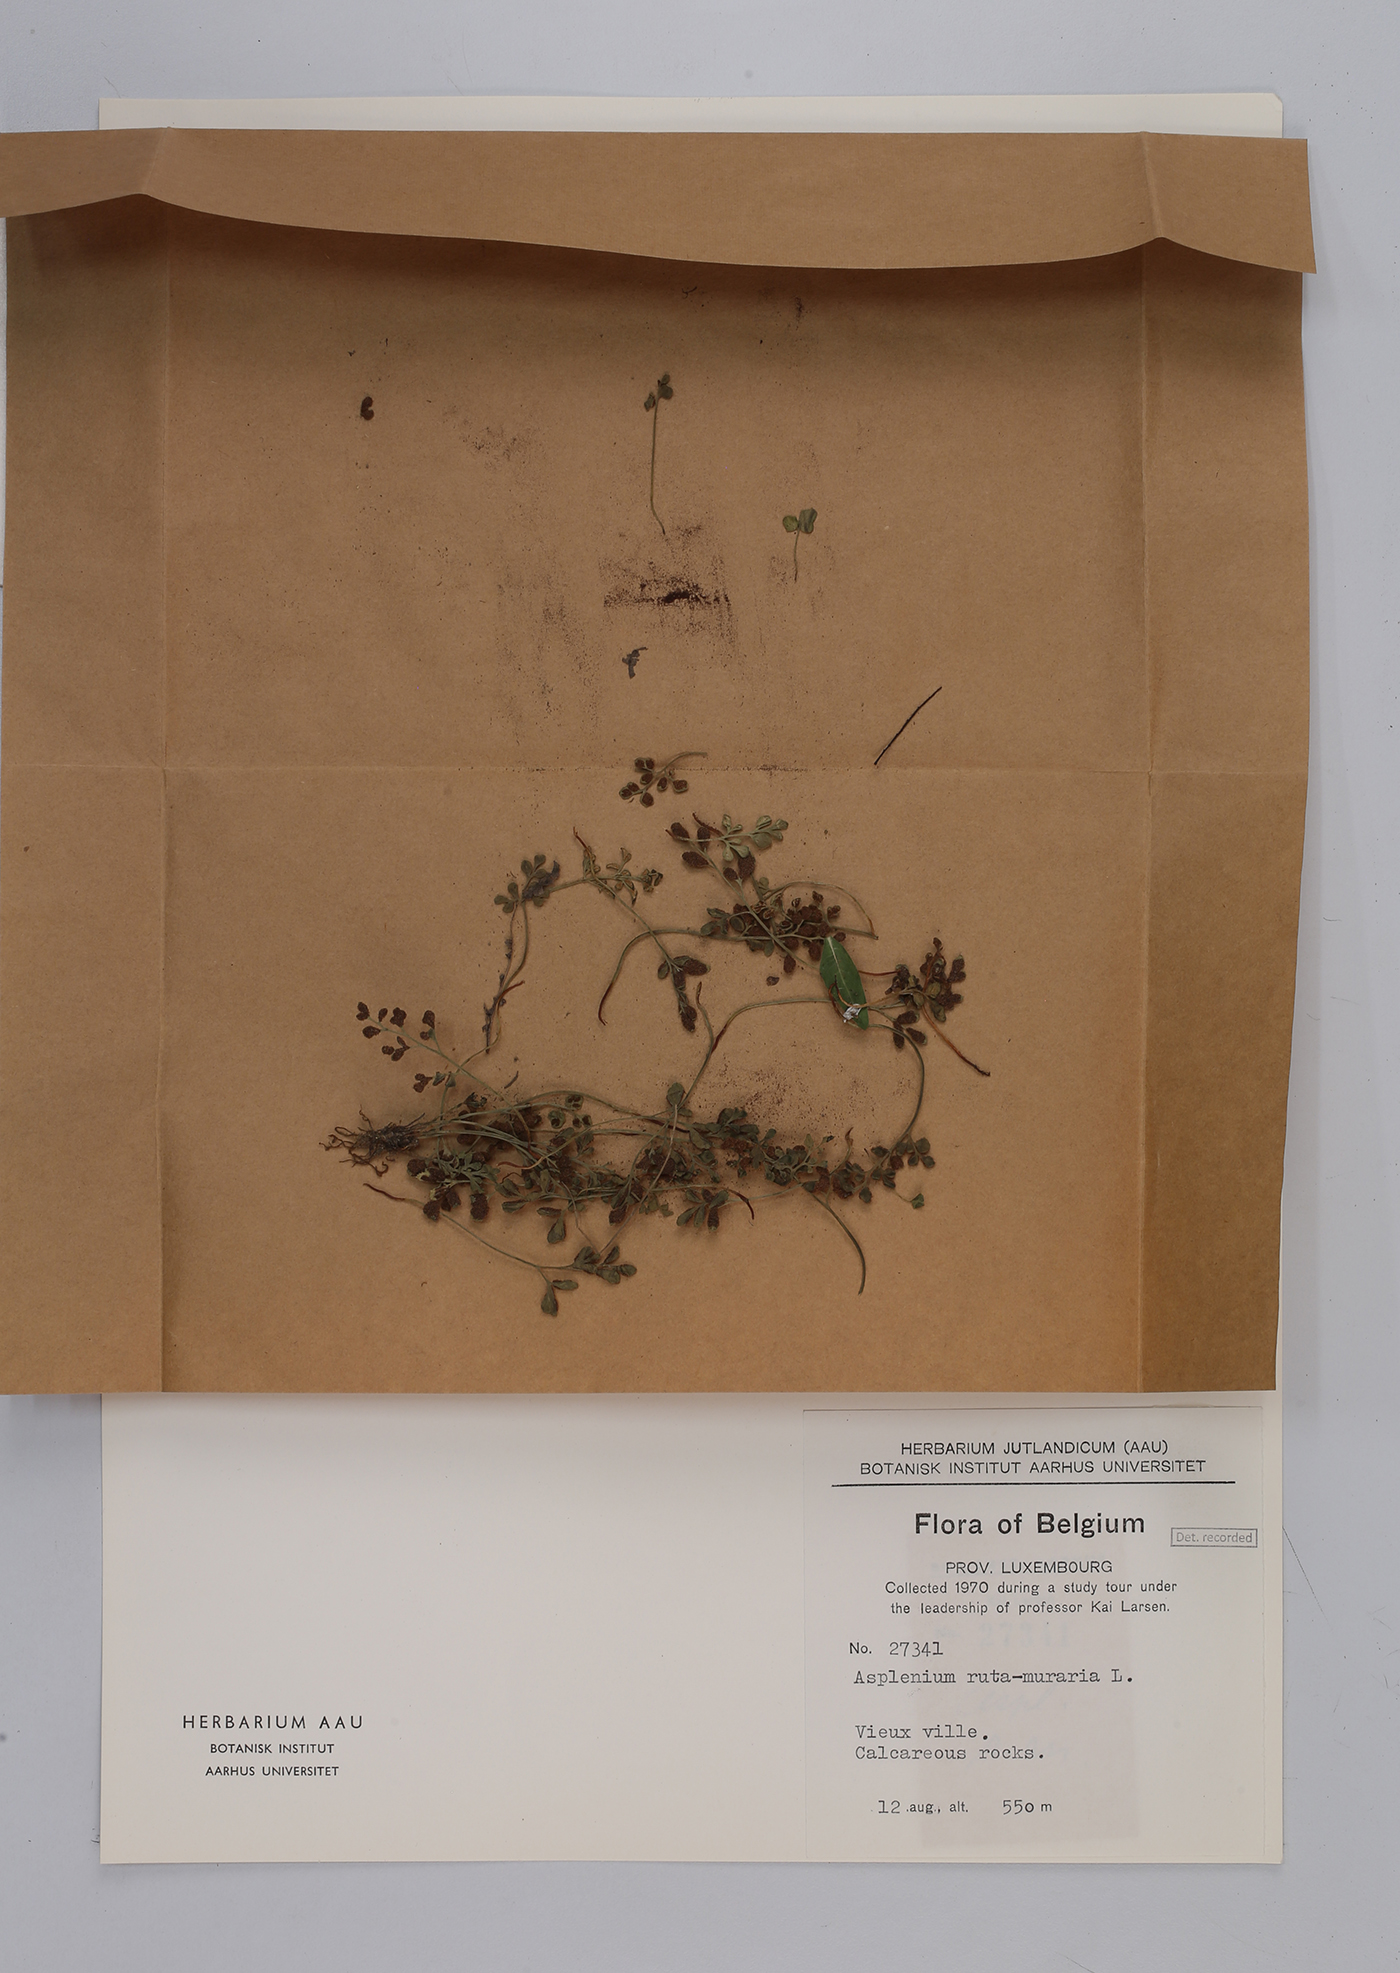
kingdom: Plantae
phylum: Tracheophyta
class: Polypodiopsida
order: Polypodiales
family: Aspleniaceae
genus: Asplenium
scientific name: Asplenium ruta-muraria
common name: Wall-rue
